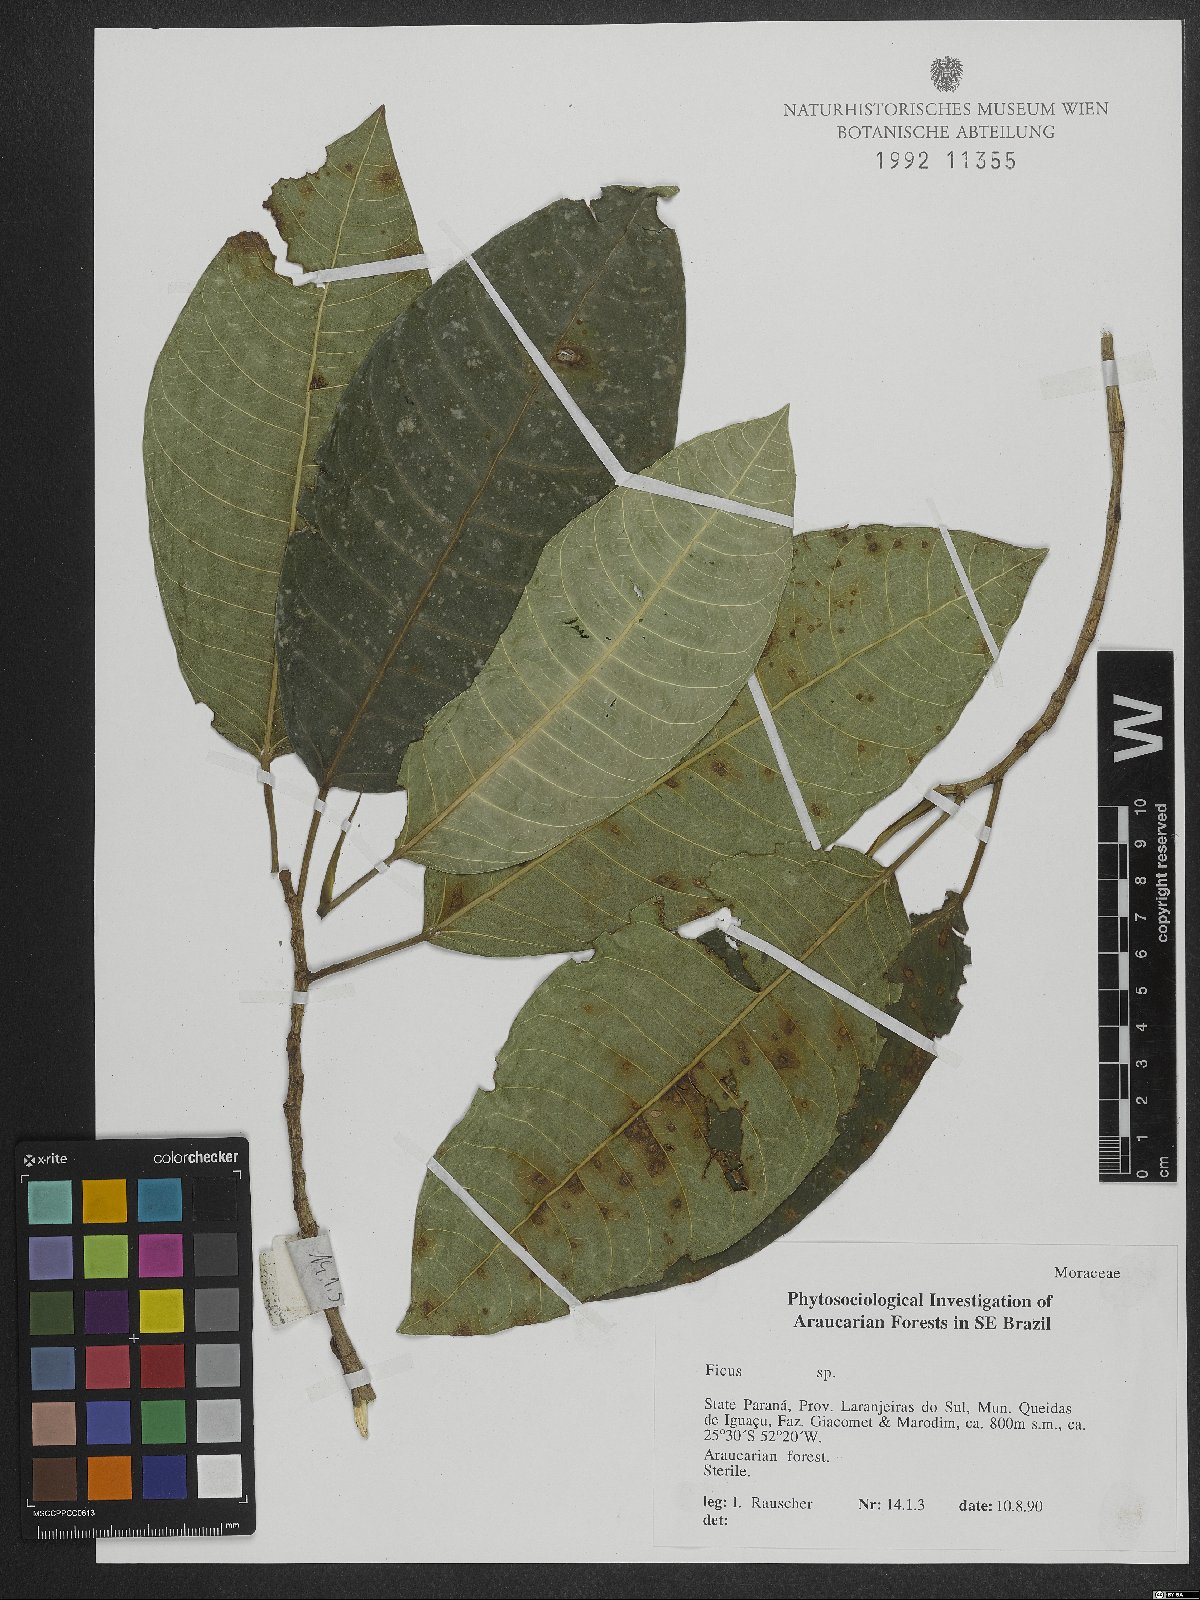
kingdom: Plantae
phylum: Tracheophyta
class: Magnoliopsida
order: Rosales
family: Moraceae
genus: Ficus
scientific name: Ficus
